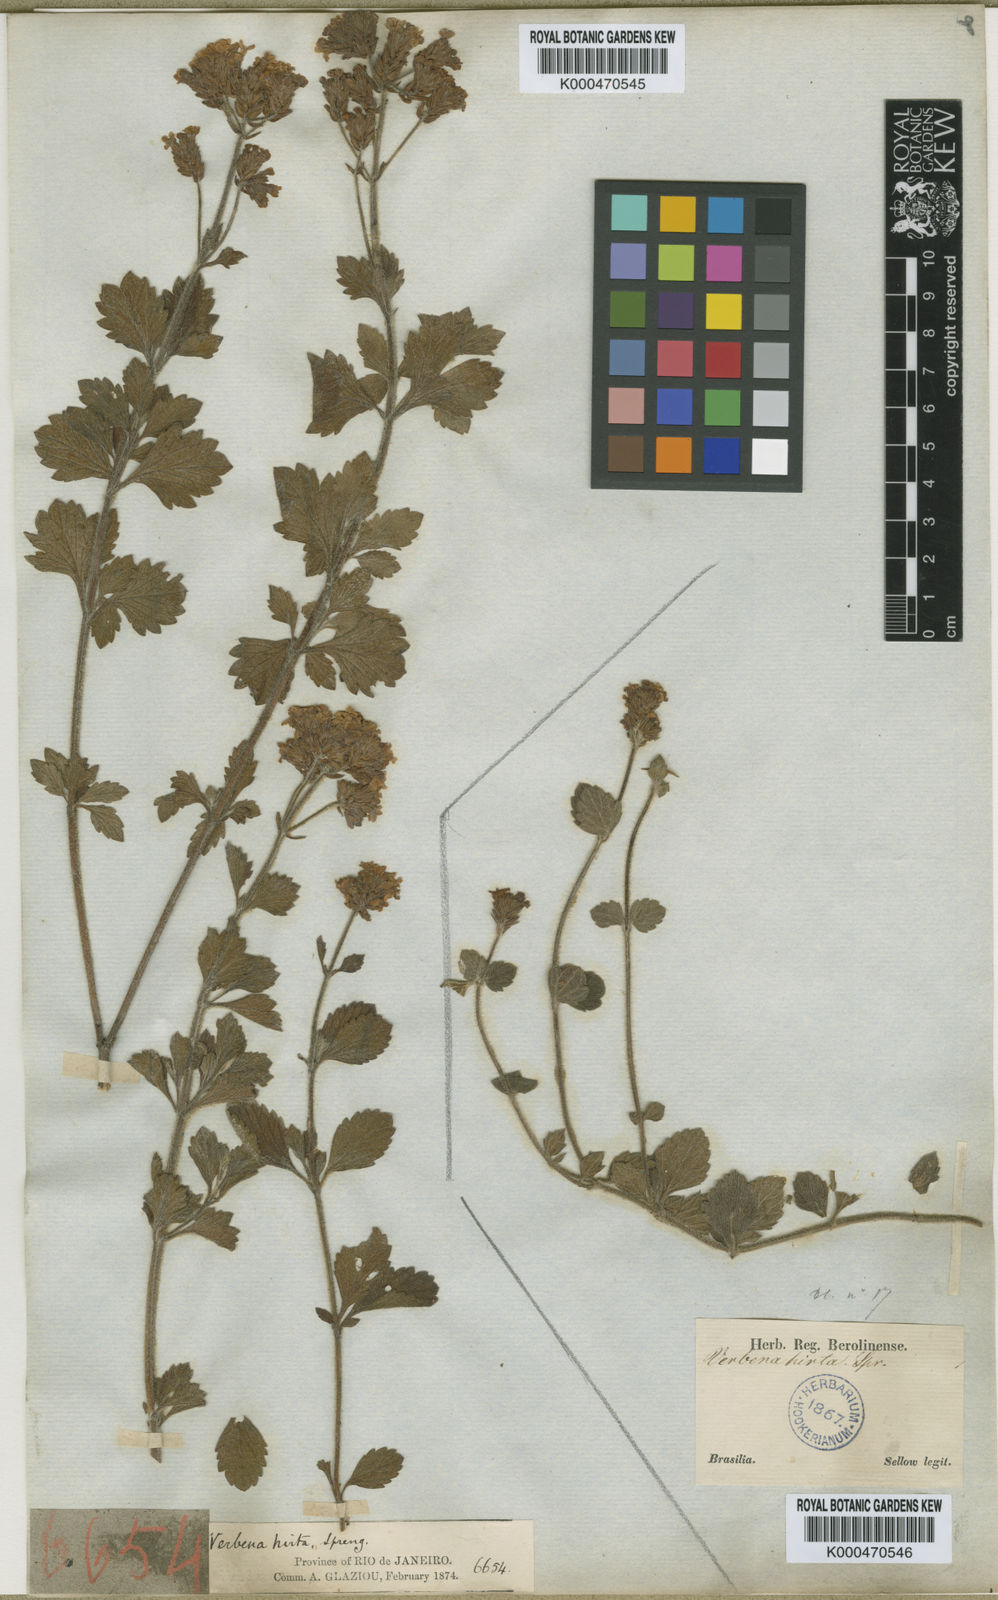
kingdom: Plantae
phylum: Tracheophyta
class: Magnoliopsida
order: Lamiales
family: Verbenaceae
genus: Verbena
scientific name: Verbena hirta
